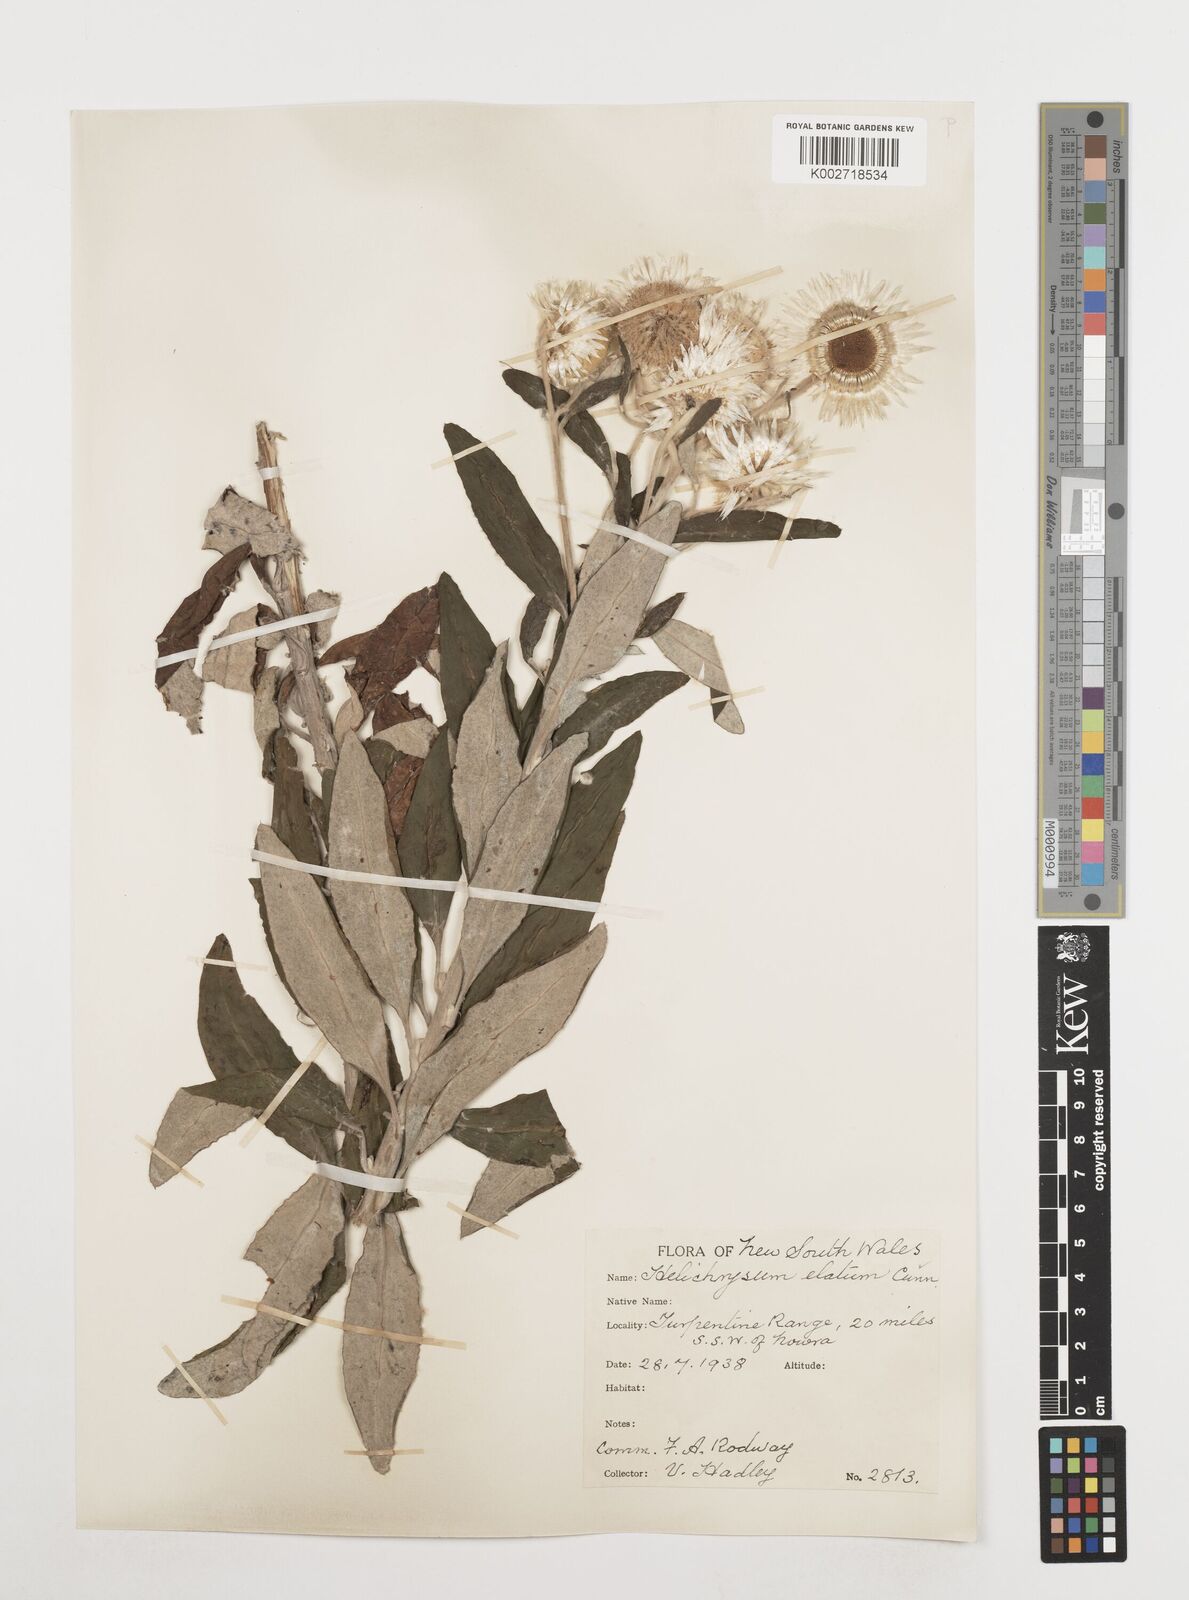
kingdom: Plantae
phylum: Tracheophyta
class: Magnoliopsida
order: Asterales
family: Asteraceae
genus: Leucozoma
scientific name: Leucozoma elatum
